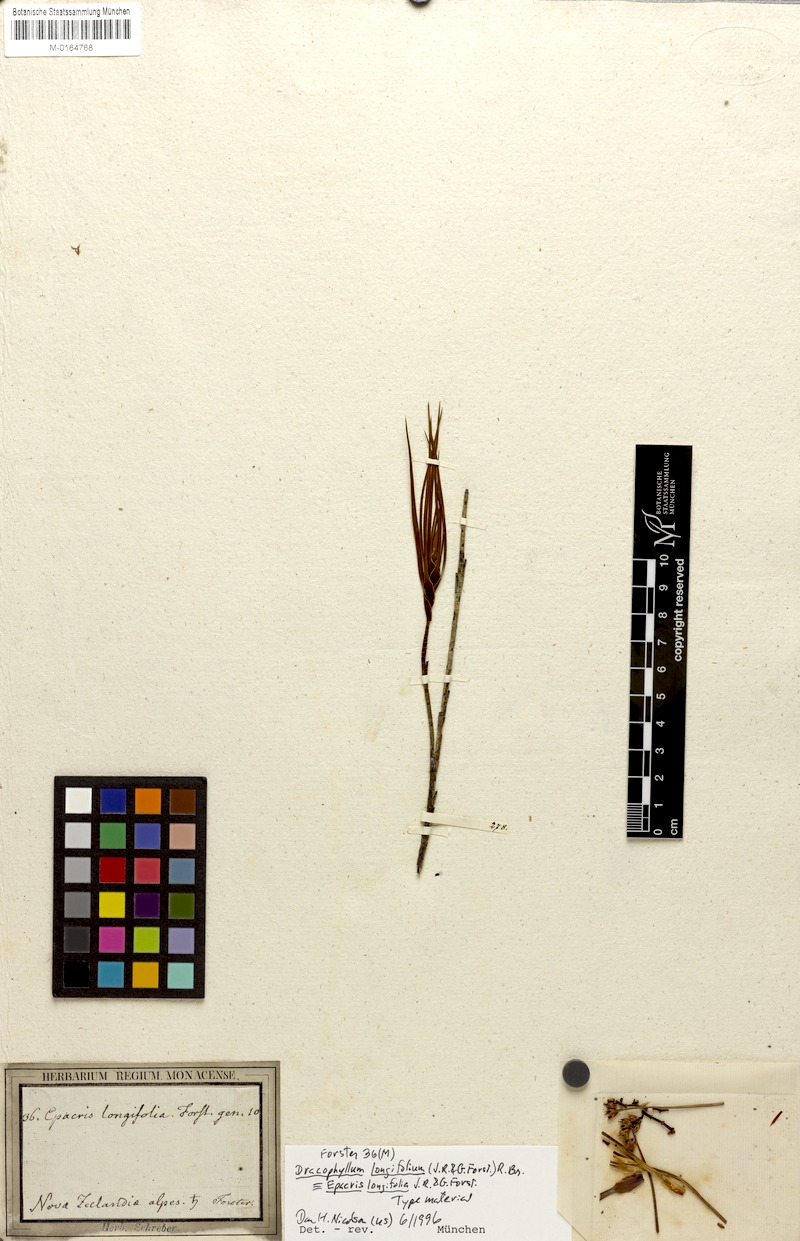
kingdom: Plantae
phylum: Tracheophyta
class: Magnoliopsida
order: Ericales
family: Ericaceae
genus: Dracophyllum
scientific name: Dracophyllum longifolium
